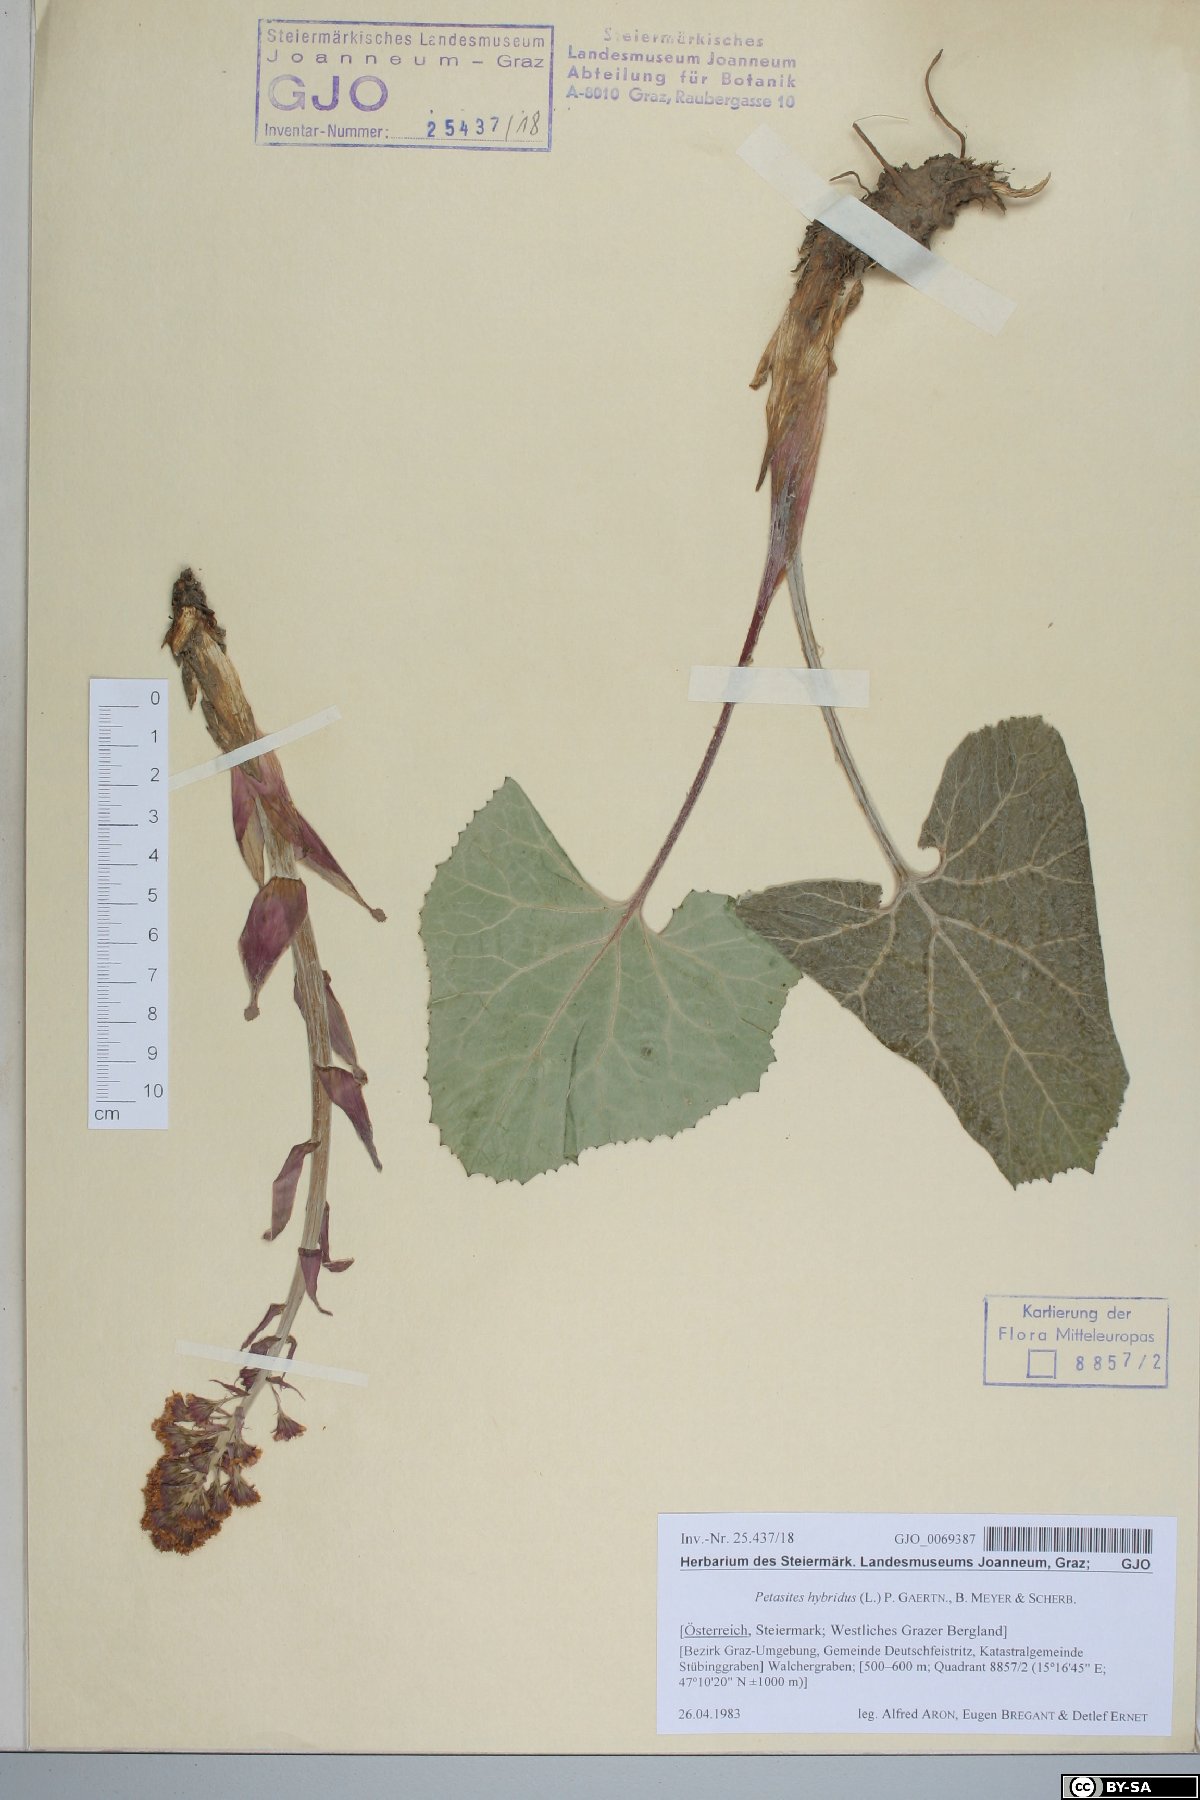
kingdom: Plantae
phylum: Tracheophyta
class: Magnoliopsida
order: Asterales
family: Asteraceae
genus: Petasites
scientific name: Petasites hybridus
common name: Butterbur
